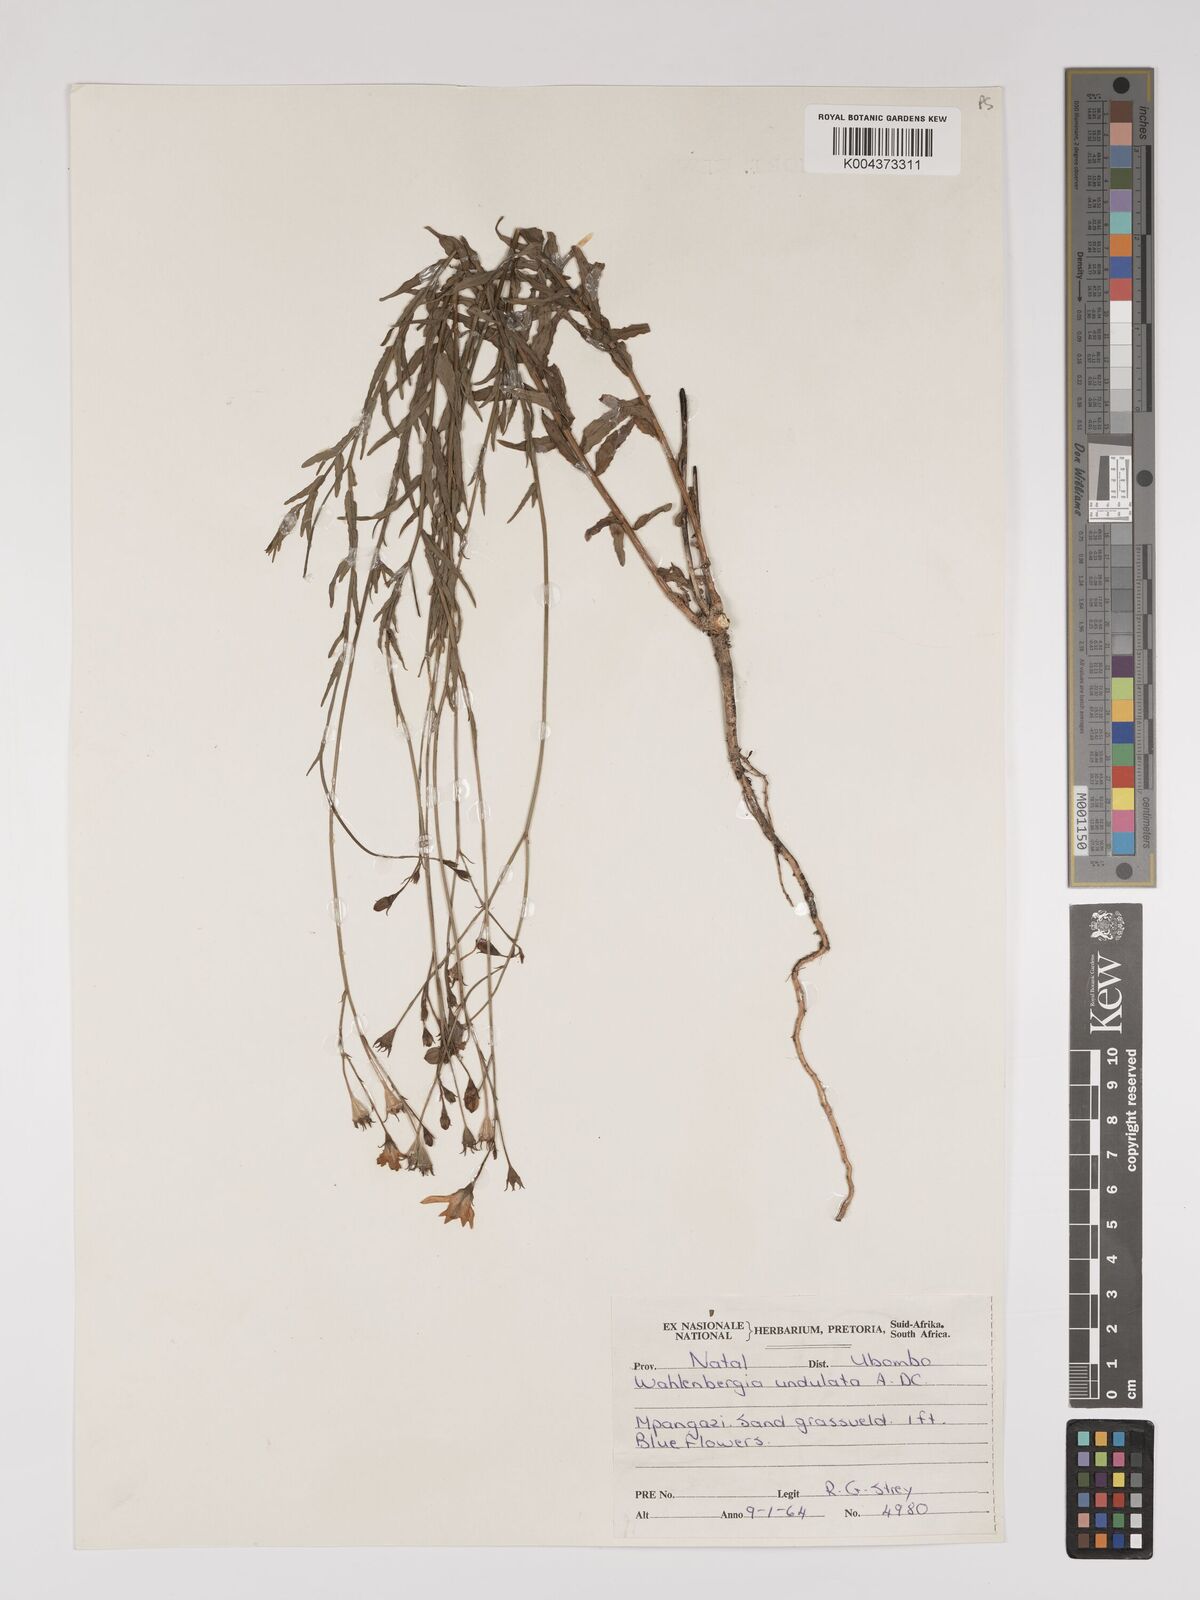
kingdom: Plantae
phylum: Tracheophyta
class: Magnoliopsida
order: Asterales
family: Campanulaceae
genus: Wahlenbergia
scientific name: Wahlenbergia undulata
